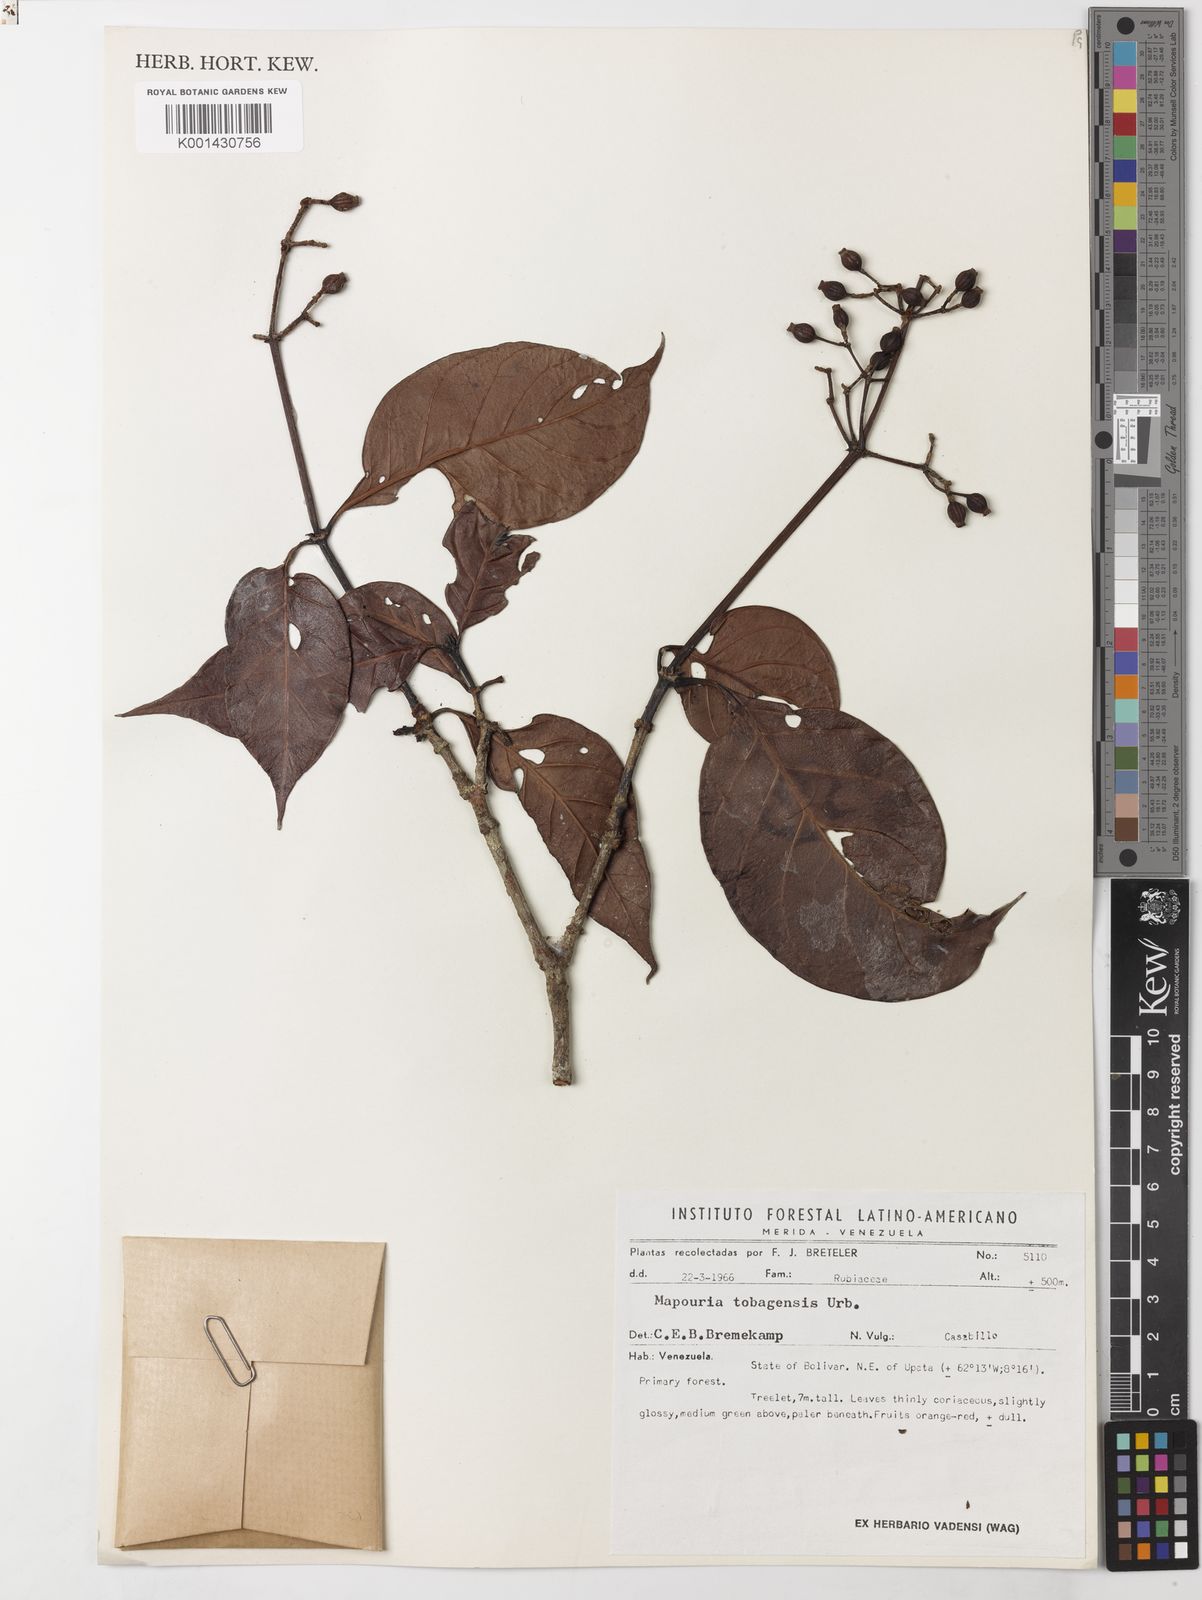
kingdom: Plantae
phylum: Tracheophyta
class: Magnoliopsida
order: Gentianales
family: Rubiaceae
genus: Psychotria
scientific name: Psychotria pedunculosa
